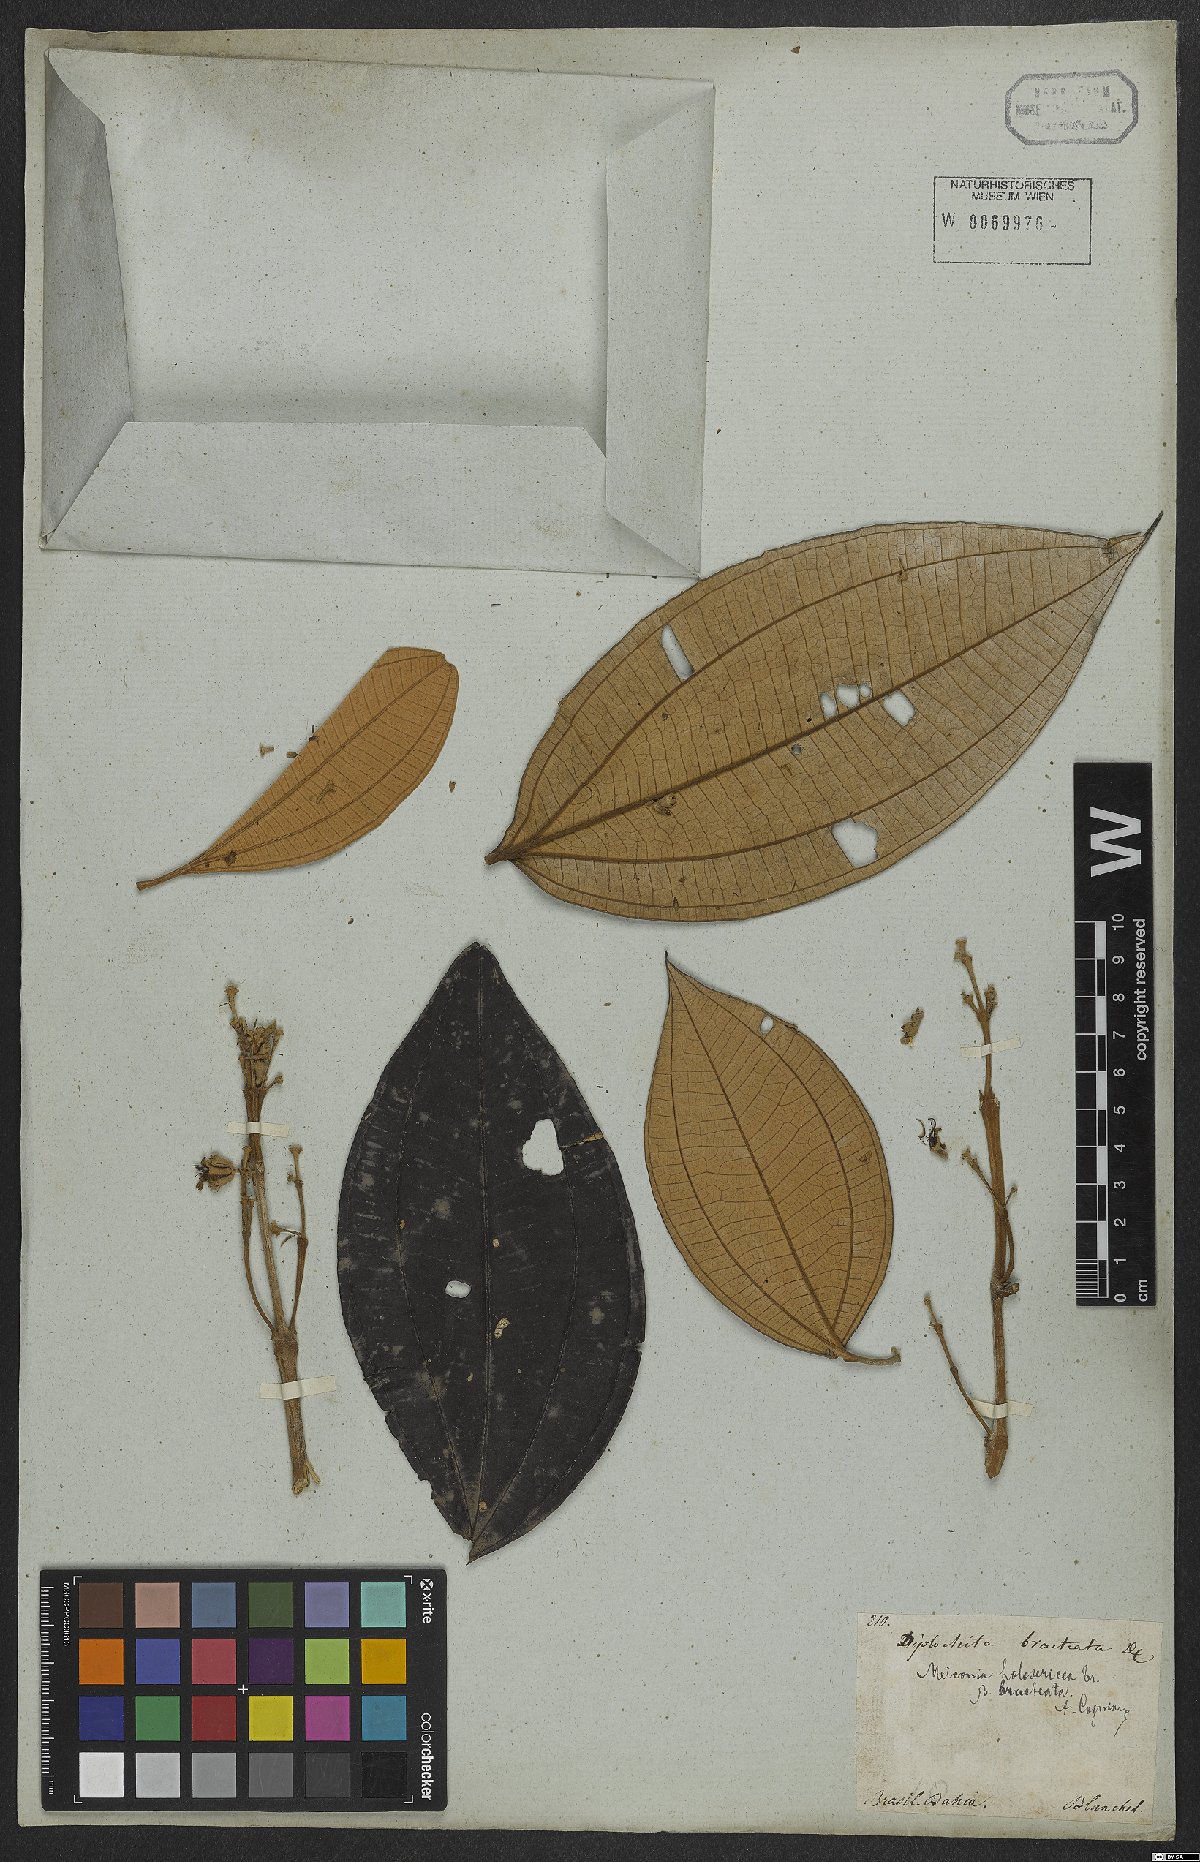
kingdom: Plantae
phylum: Tracheophyta
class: Magnoliopsida
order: Myrtales
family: Melastomataceae
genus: Miconia
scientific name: Miconia holosericea
